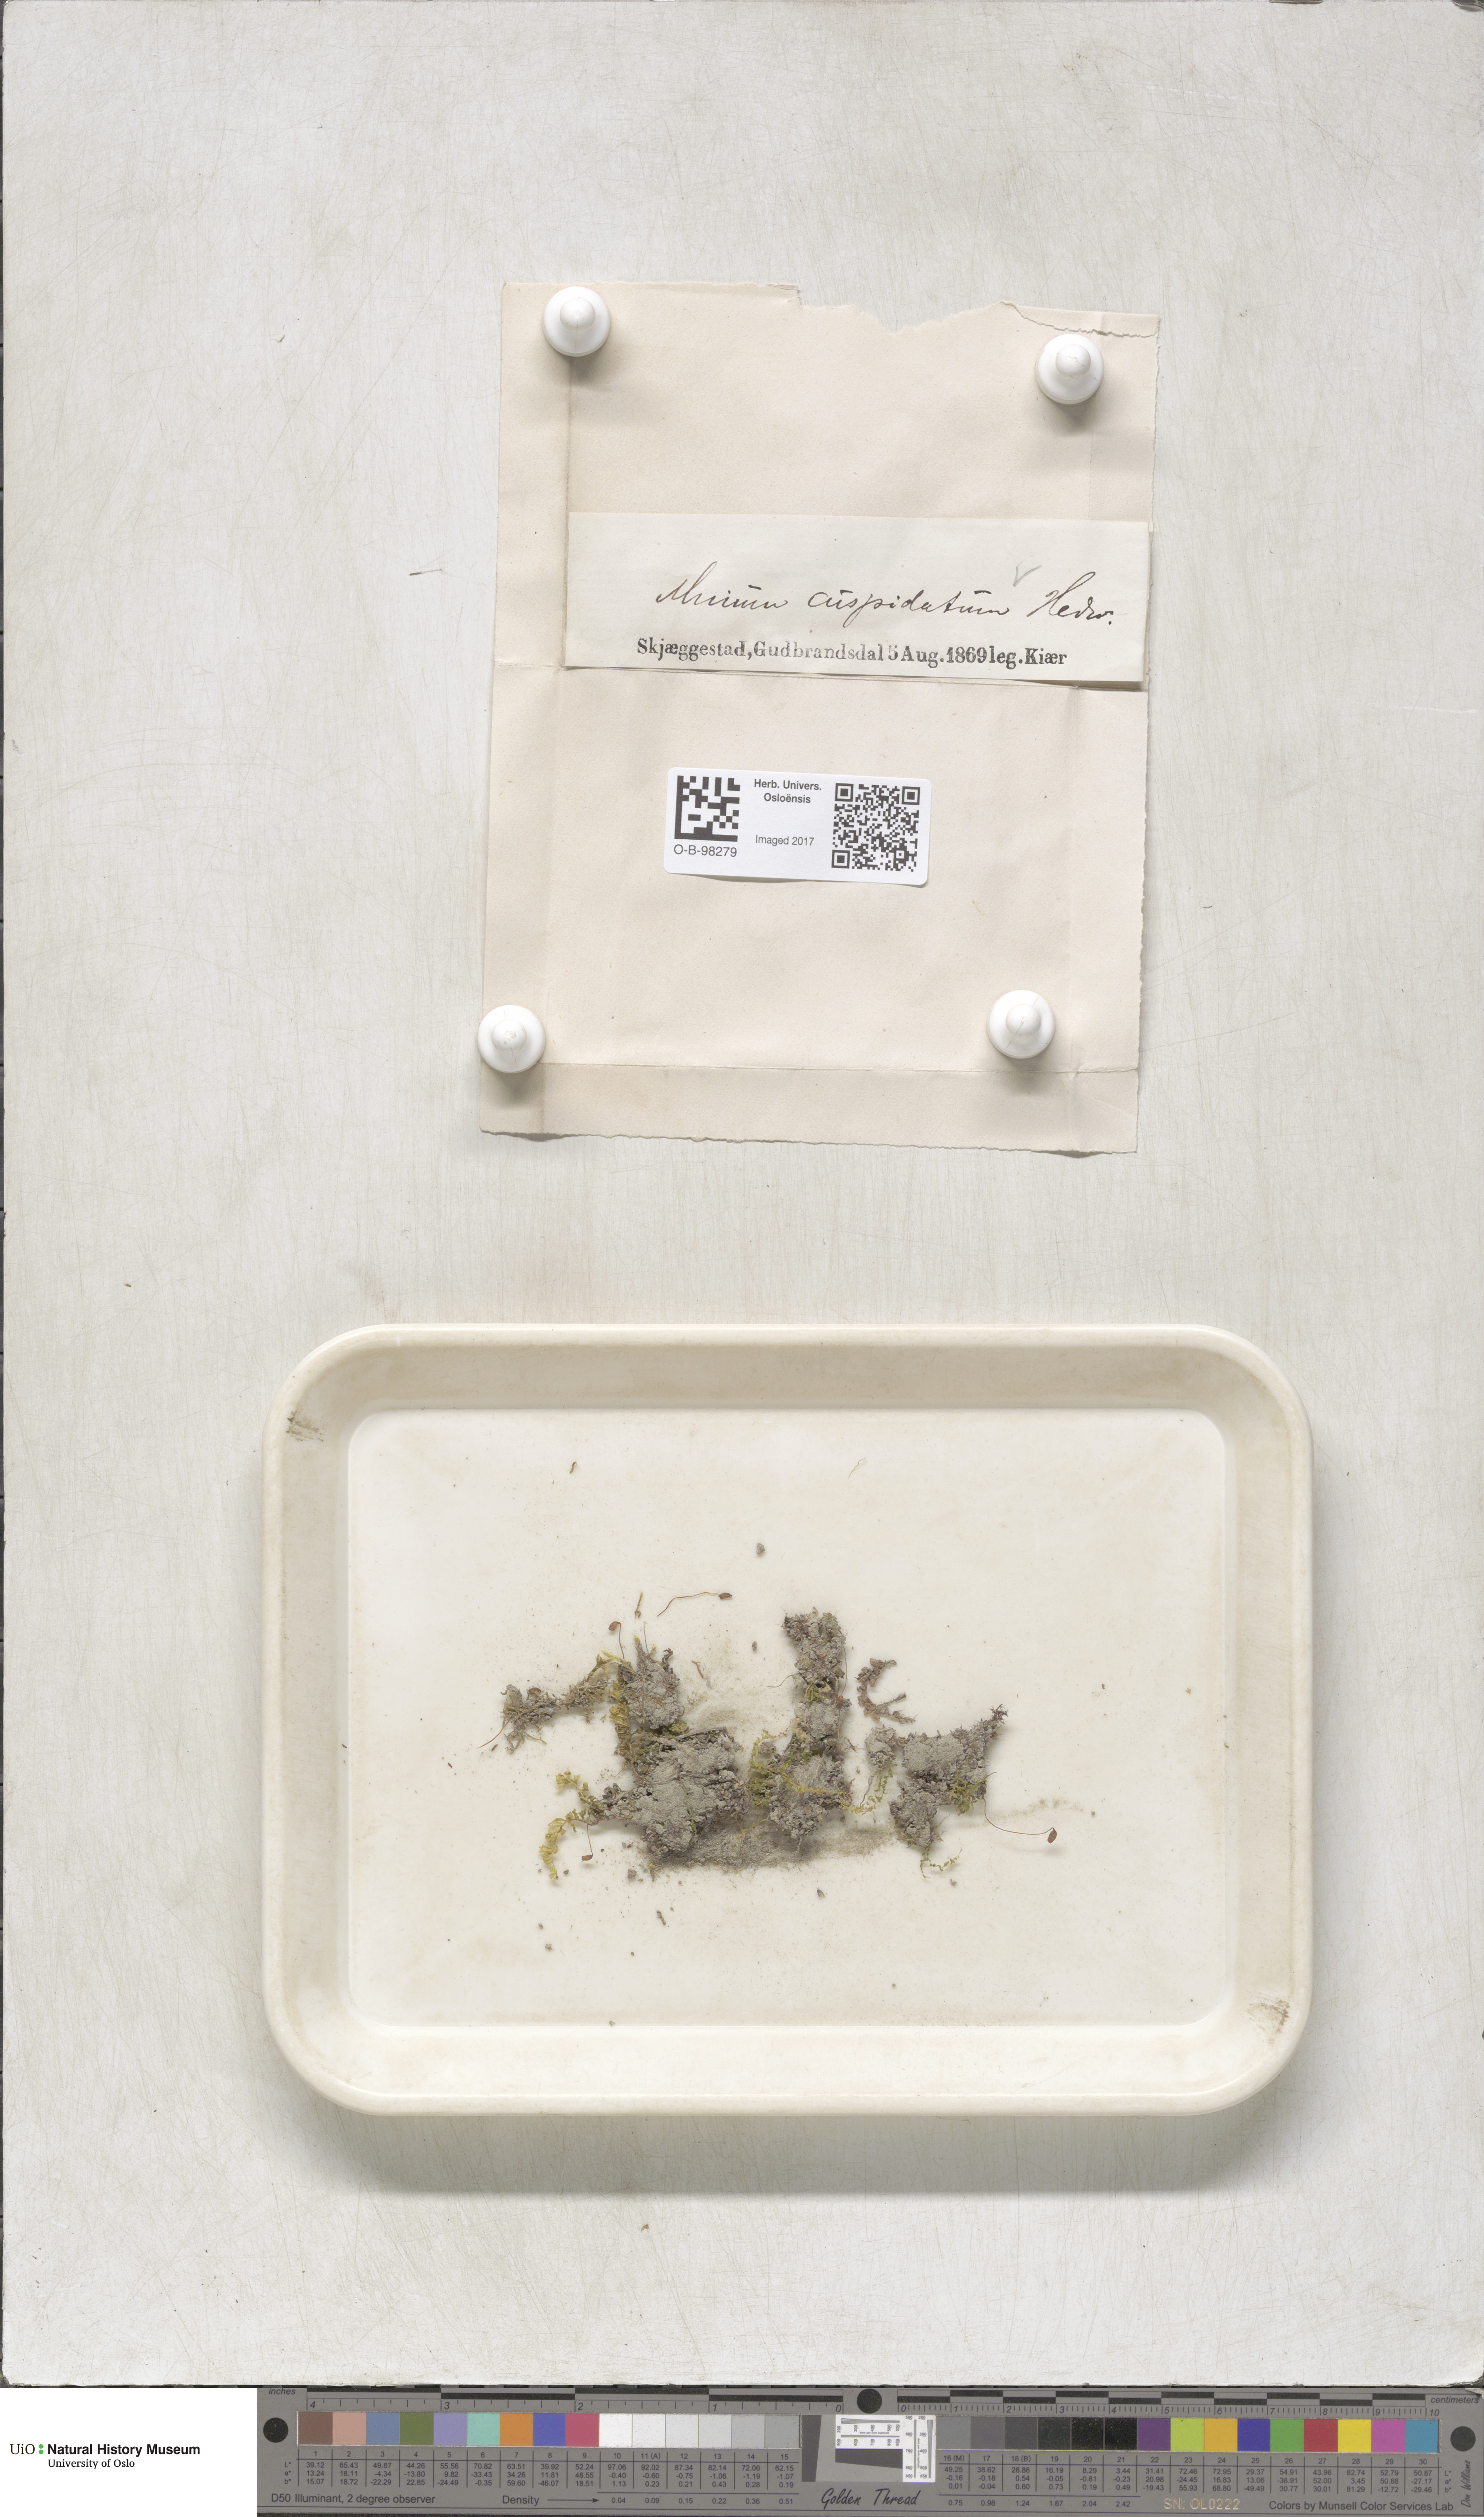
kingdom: Plantae
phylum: Bryophyta
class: Bryopsida
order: Bryales
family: Mniaceae
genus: Plagiomnium
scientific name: Plagiomnium cuspidatum
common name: Woodsy leafy moss
